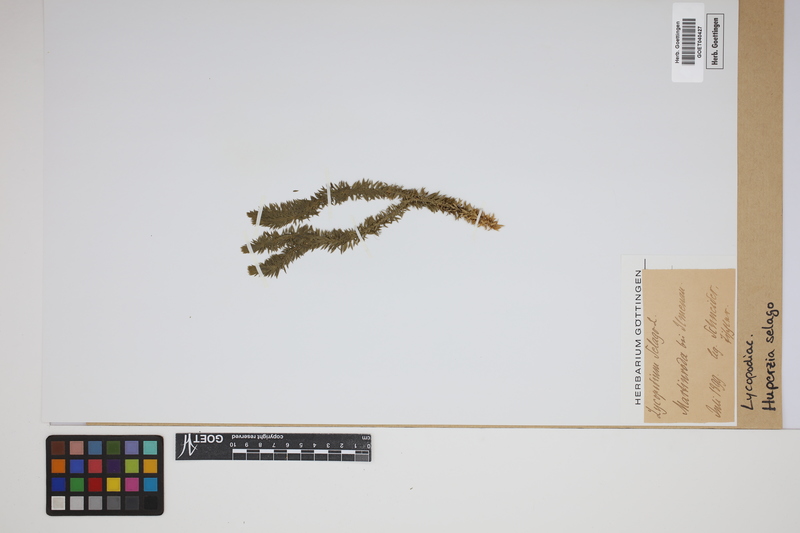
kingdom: Plantae
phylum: Tracheophyta
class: Lycopodiopsida
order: Lycopodiales
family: Lycopodiaceae
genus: Huperzia
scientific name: Huperzia selago
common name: Northern firmoss
